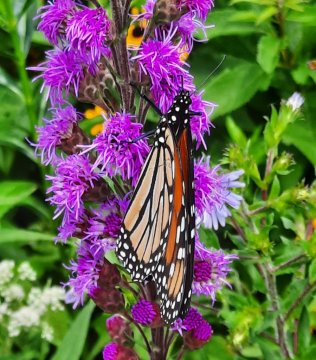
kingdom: Animalia
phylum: Arthropoda
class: Insecta
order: Lepidoptera
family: Nymphalidae
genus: Danaus
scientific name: Danaus plexippus
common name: Monarch
